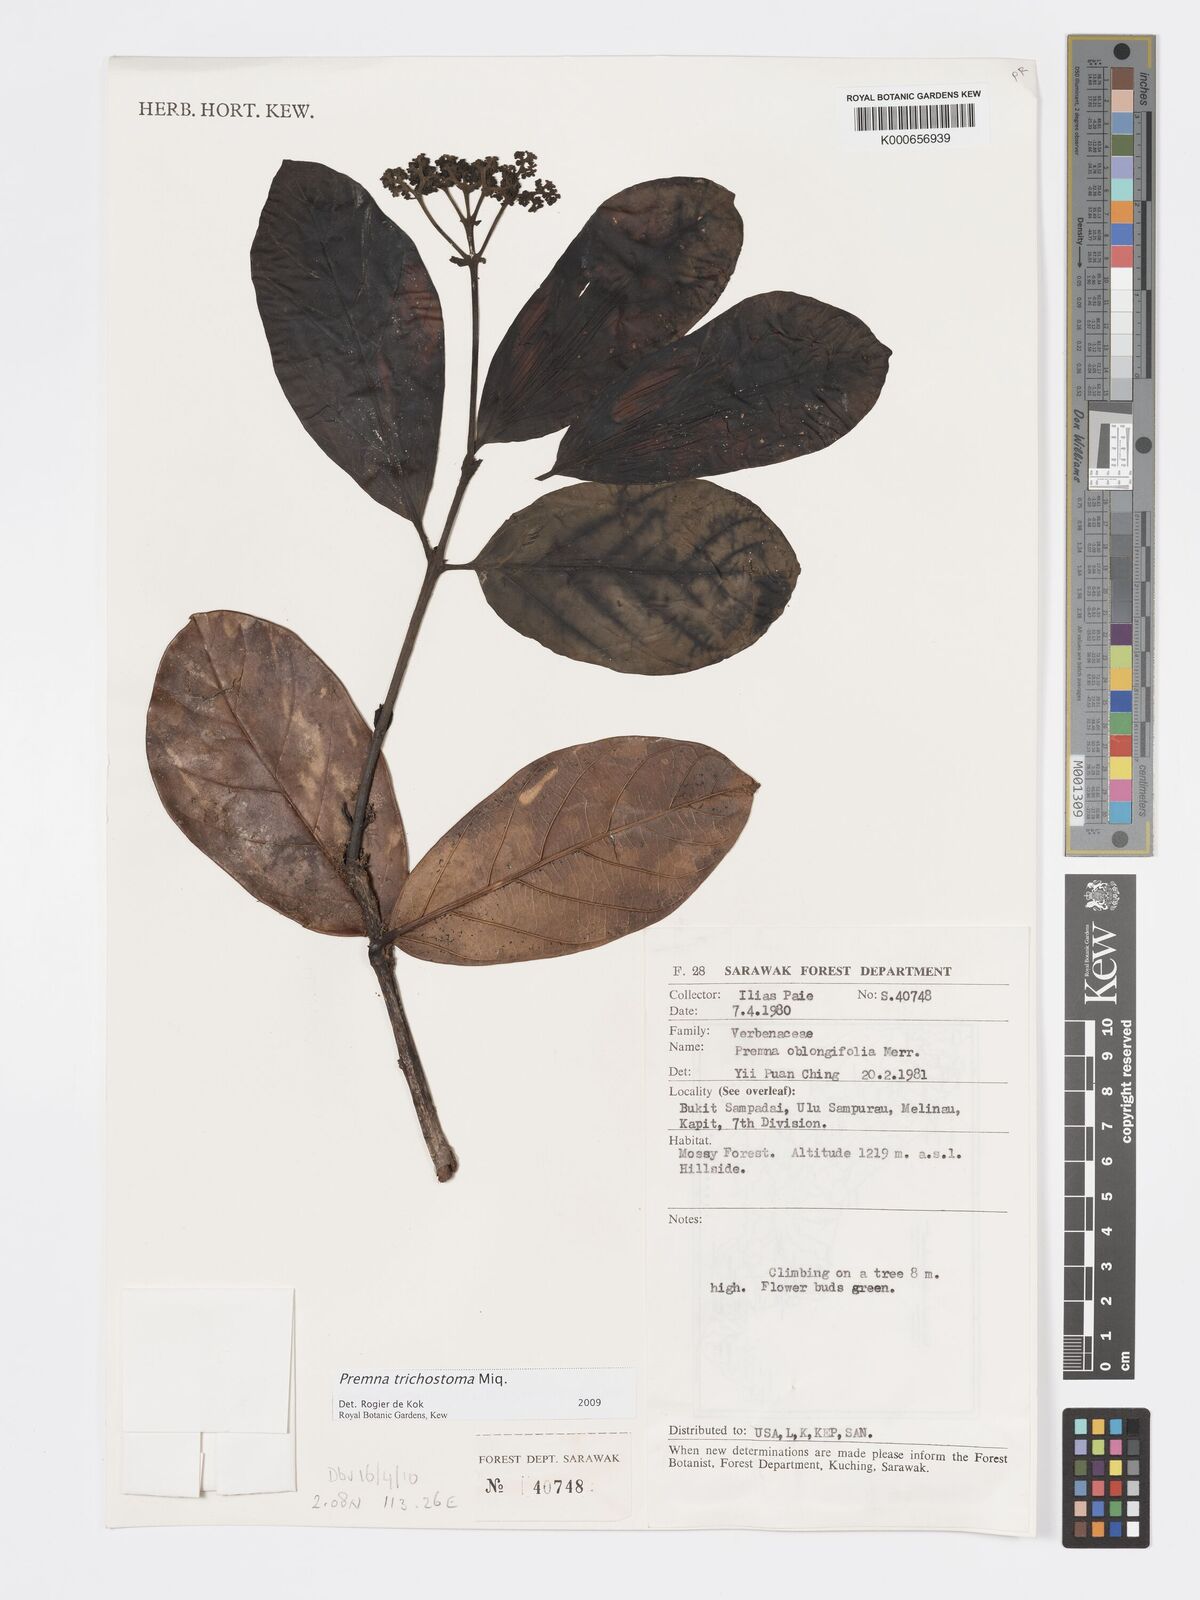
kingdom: Plantae
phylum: Tracheophyta
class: Magnoliopsida
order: Lamiales
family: Lamiaceae
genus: Premna
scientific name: Premna trichostoma
